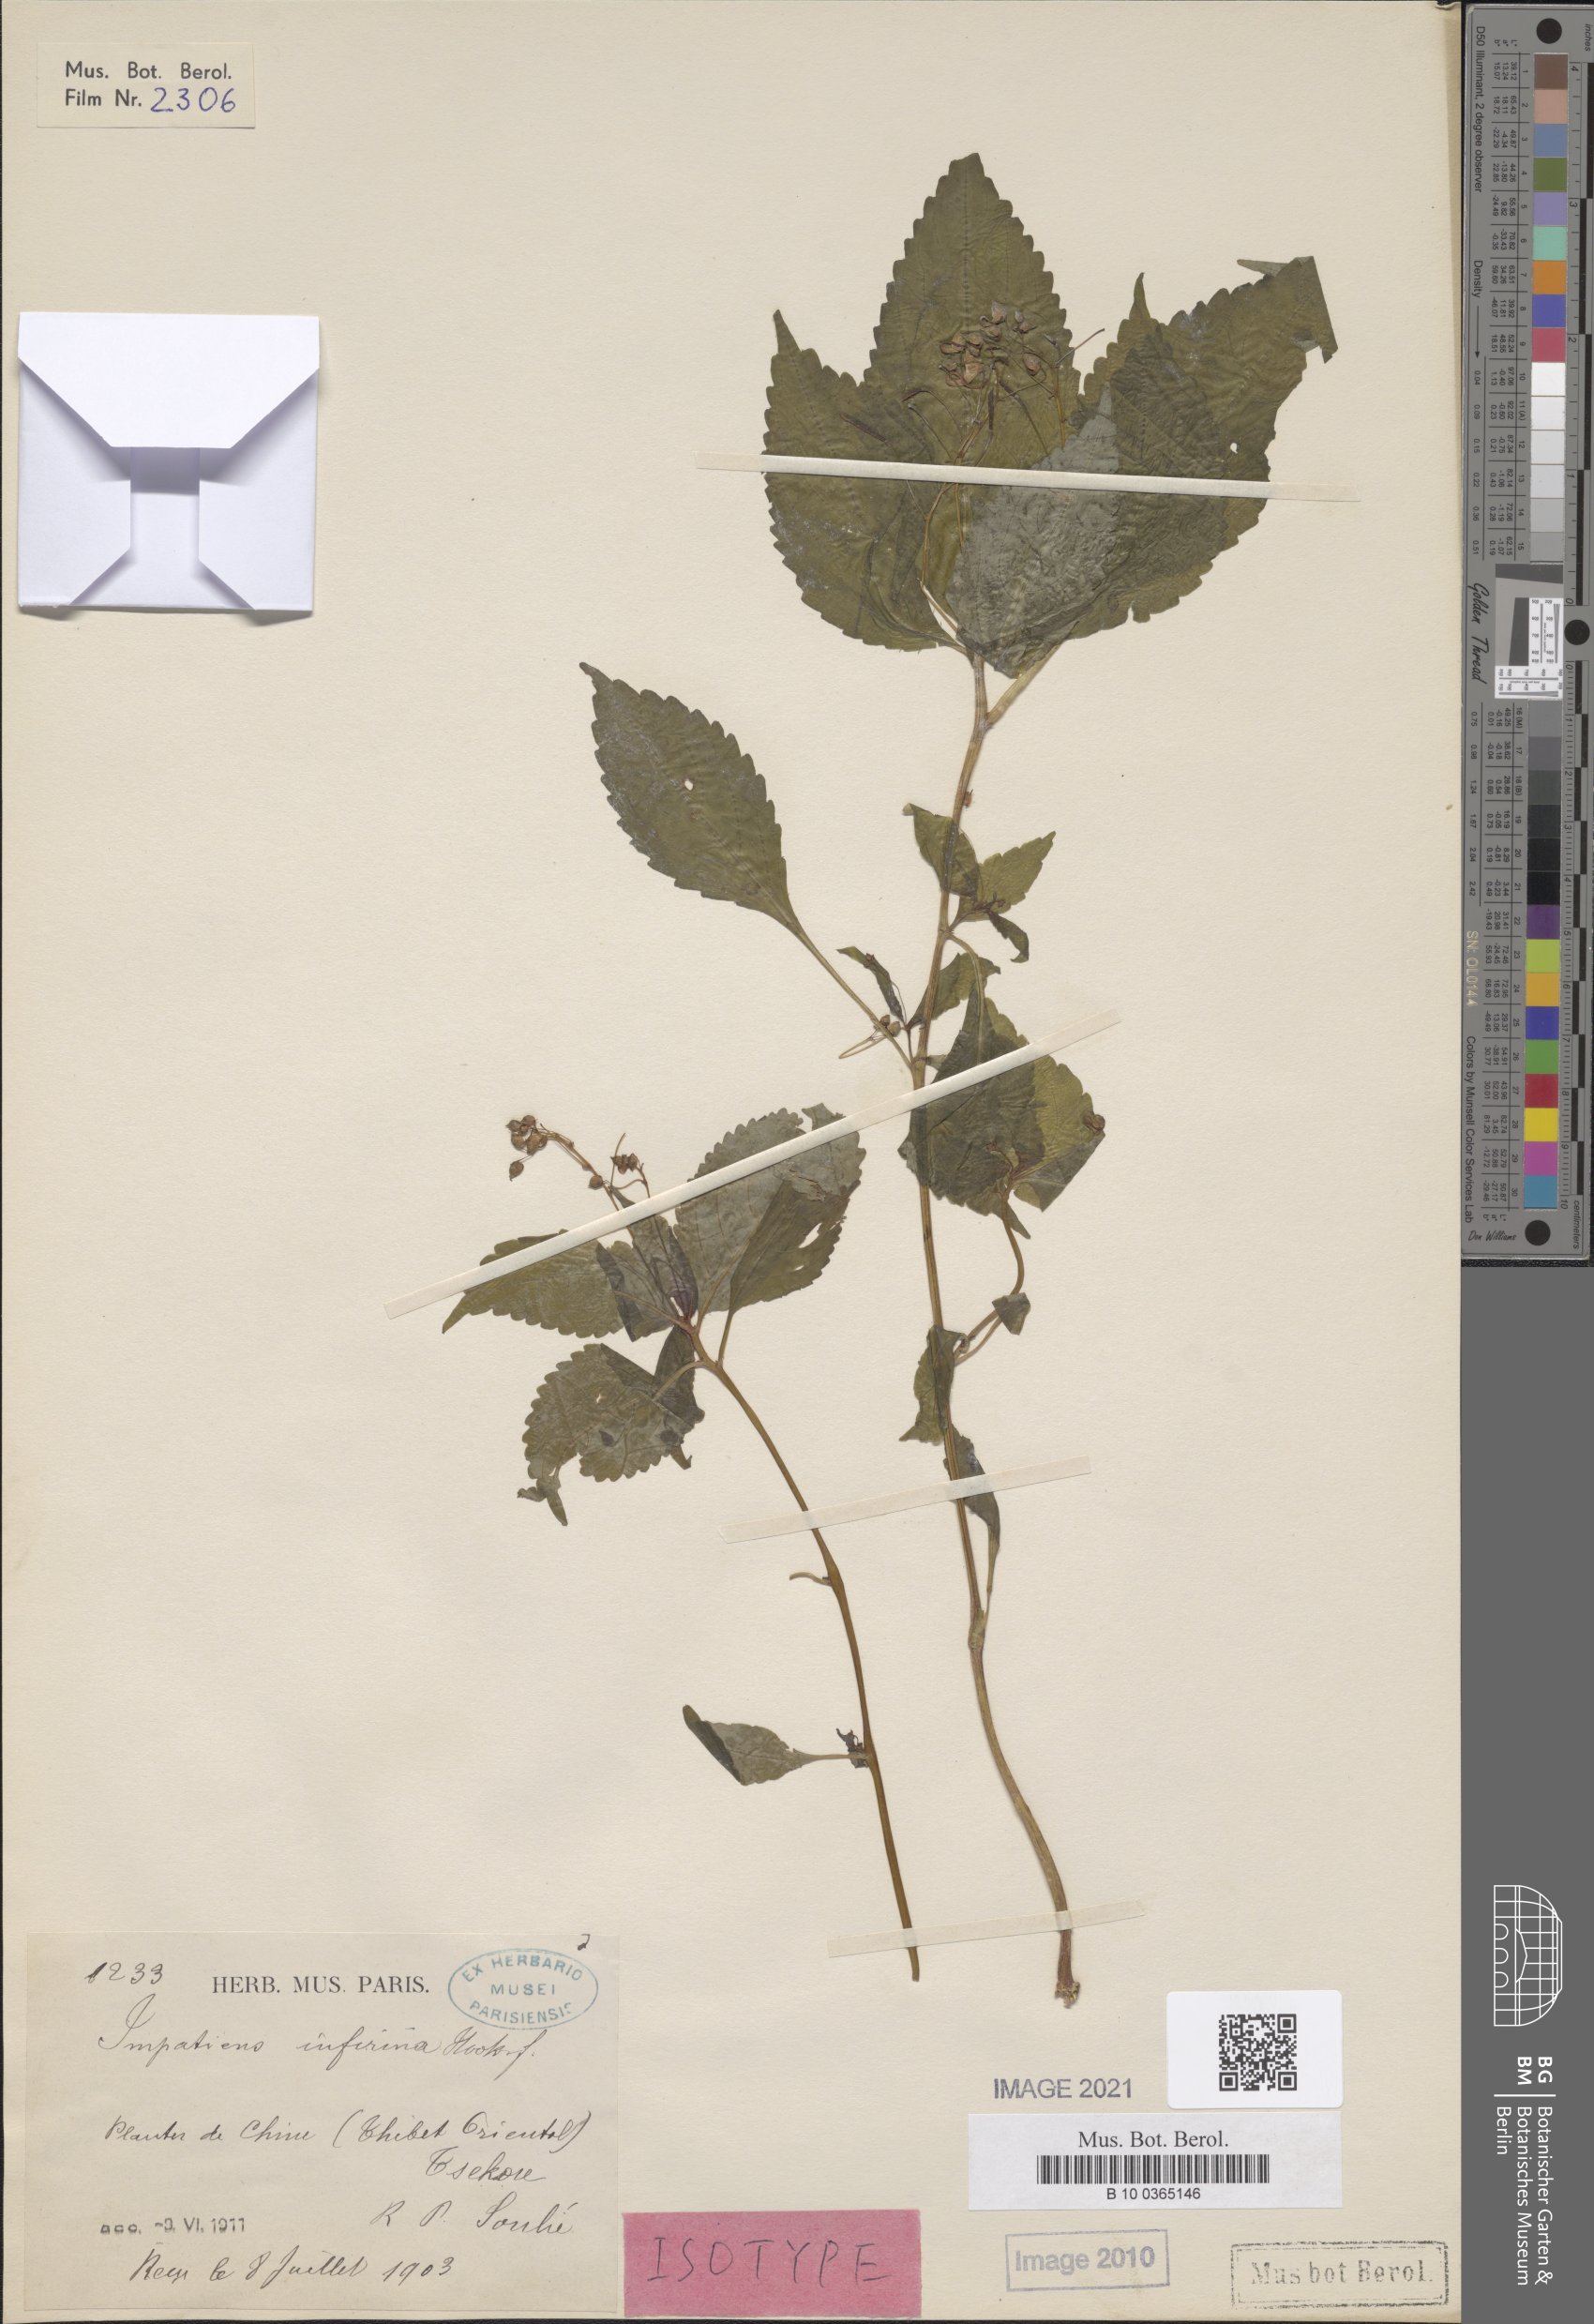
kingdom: Plantae
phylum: Tracheophyta
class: Magnoliopsida
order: Ericales
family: Balsaminaceae
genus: Impatiens
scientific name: Impatiens infirma
